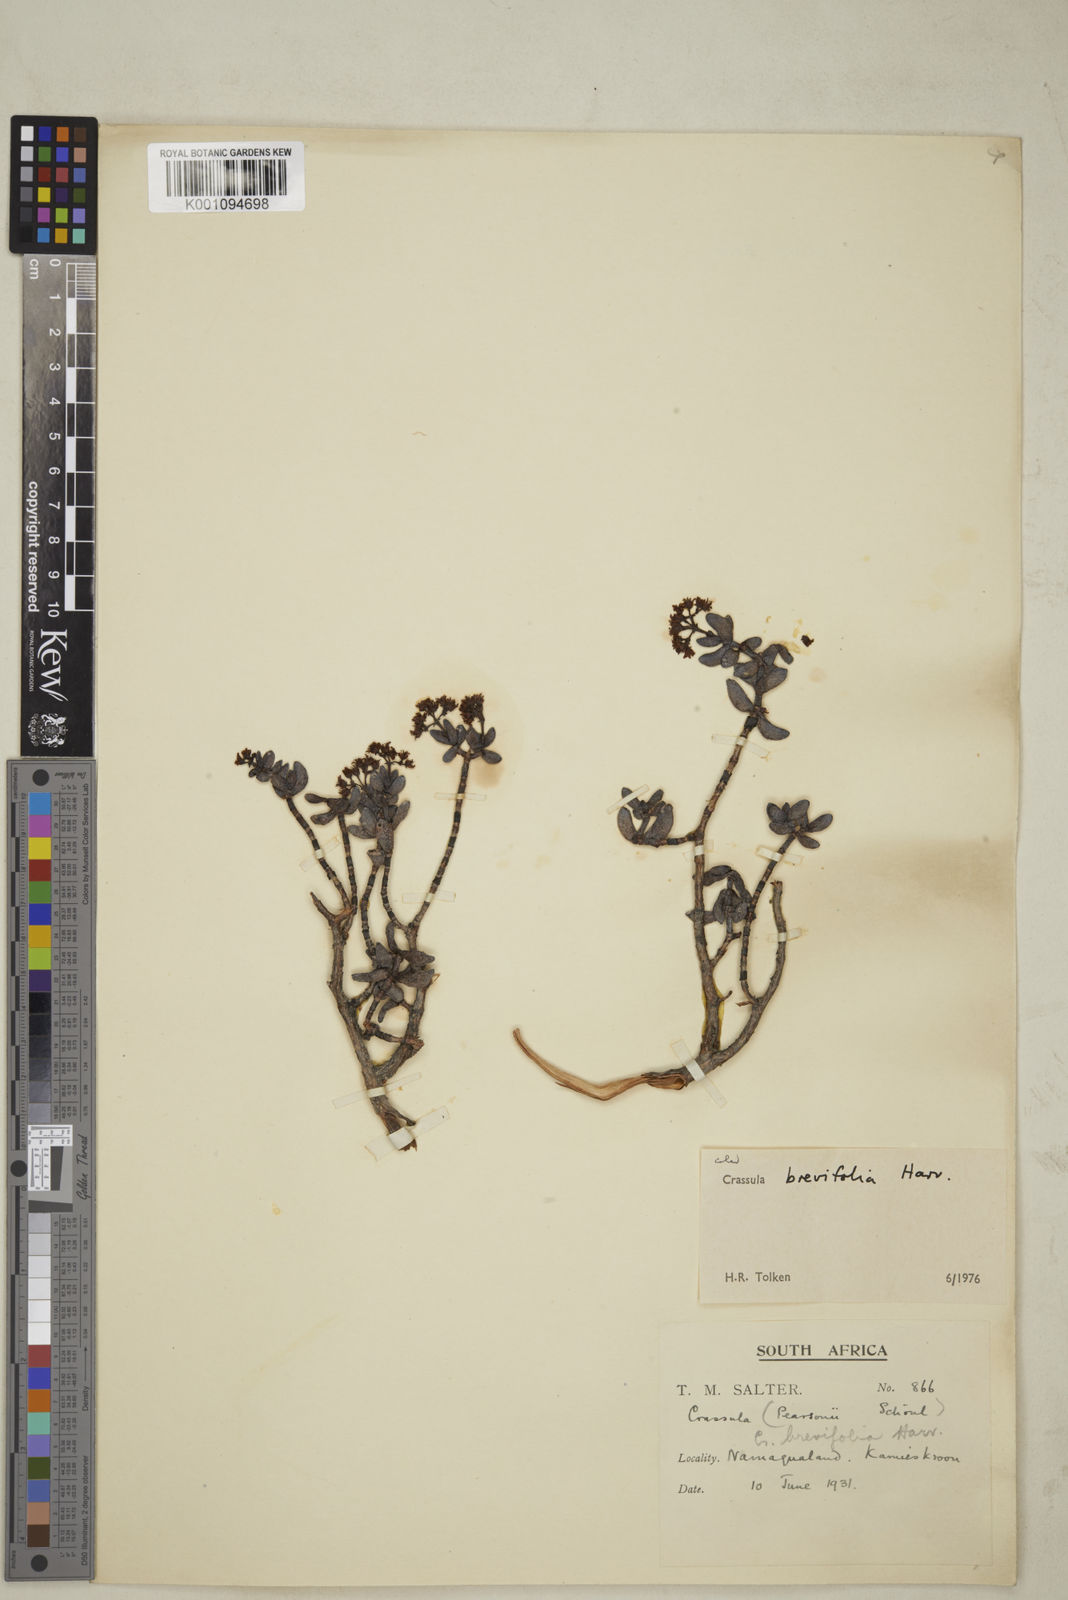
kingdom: Plantae
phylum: Tracheophyta
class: Magnoliopsida
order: Saxifragales
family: Crassulaceae
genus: Crassula
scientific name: Crassula brevifolia
